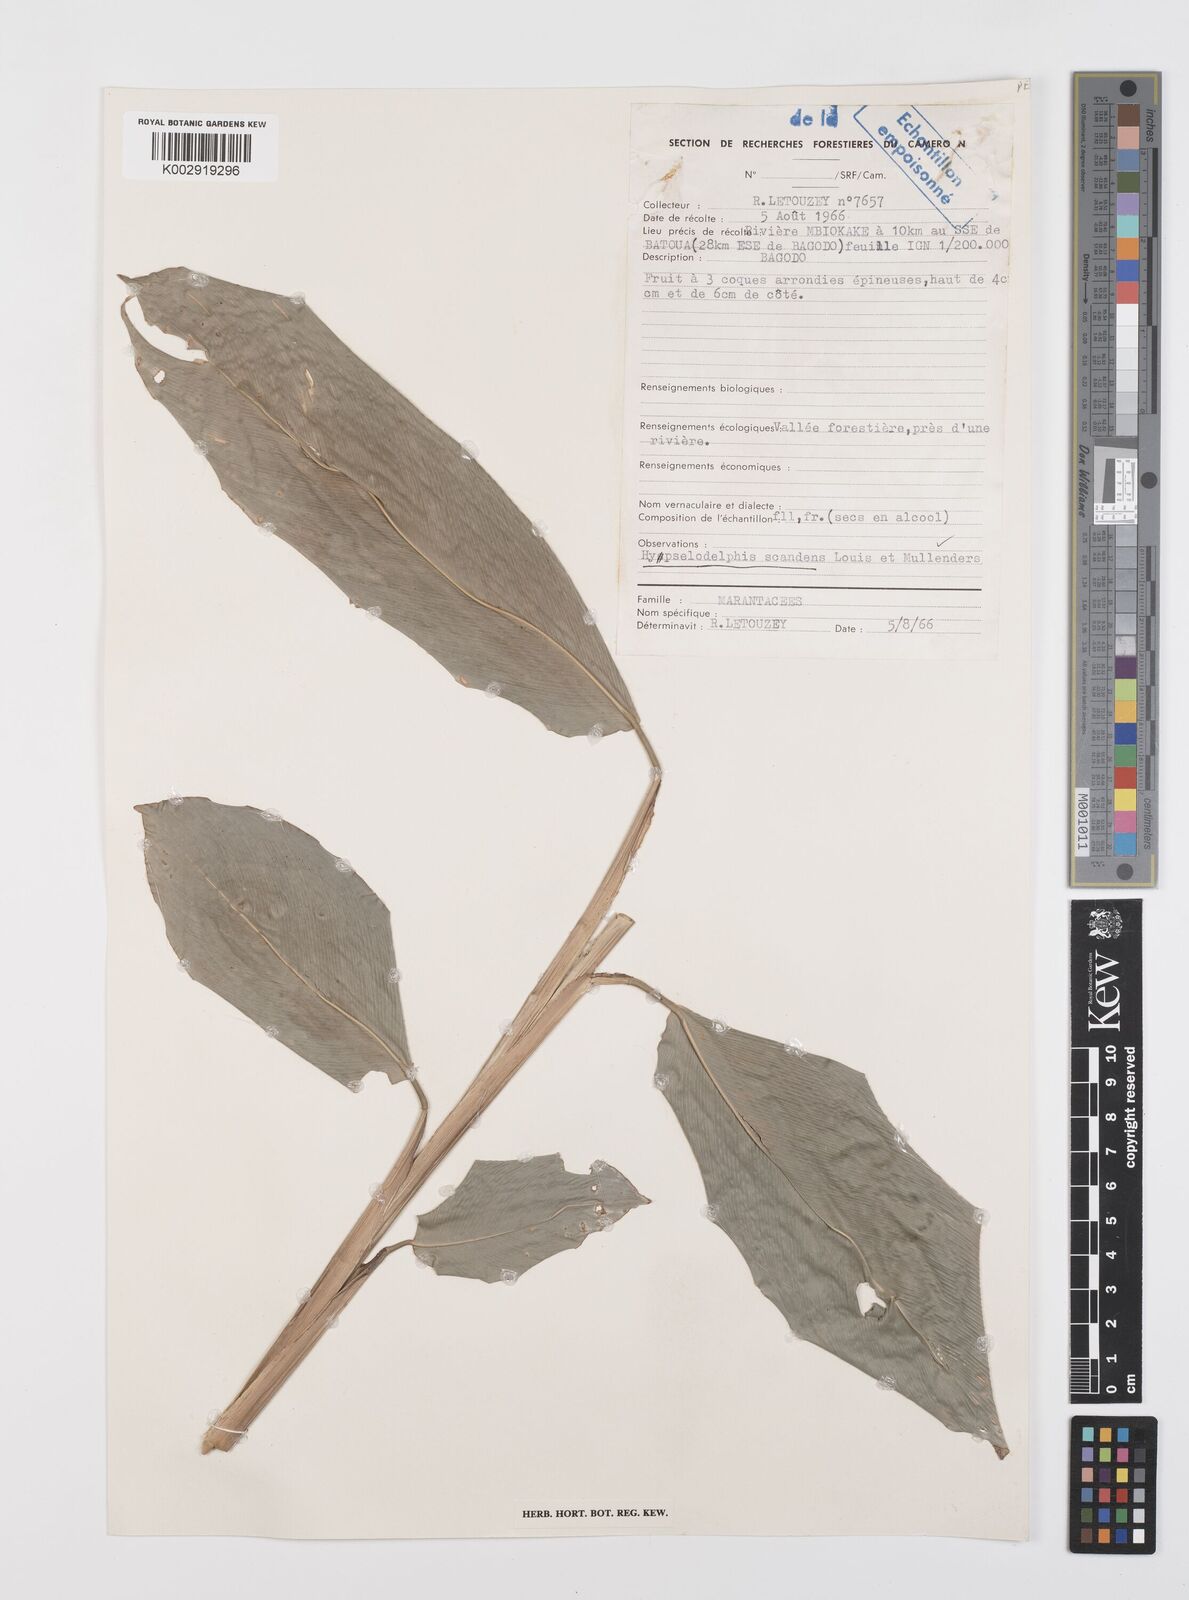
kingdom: Plantae
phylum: Tracheophyta
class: Liliopsida
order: Zingiberales
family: Marantaceae
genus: Hypselodelphys
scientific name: Hypselodelphys scandens
